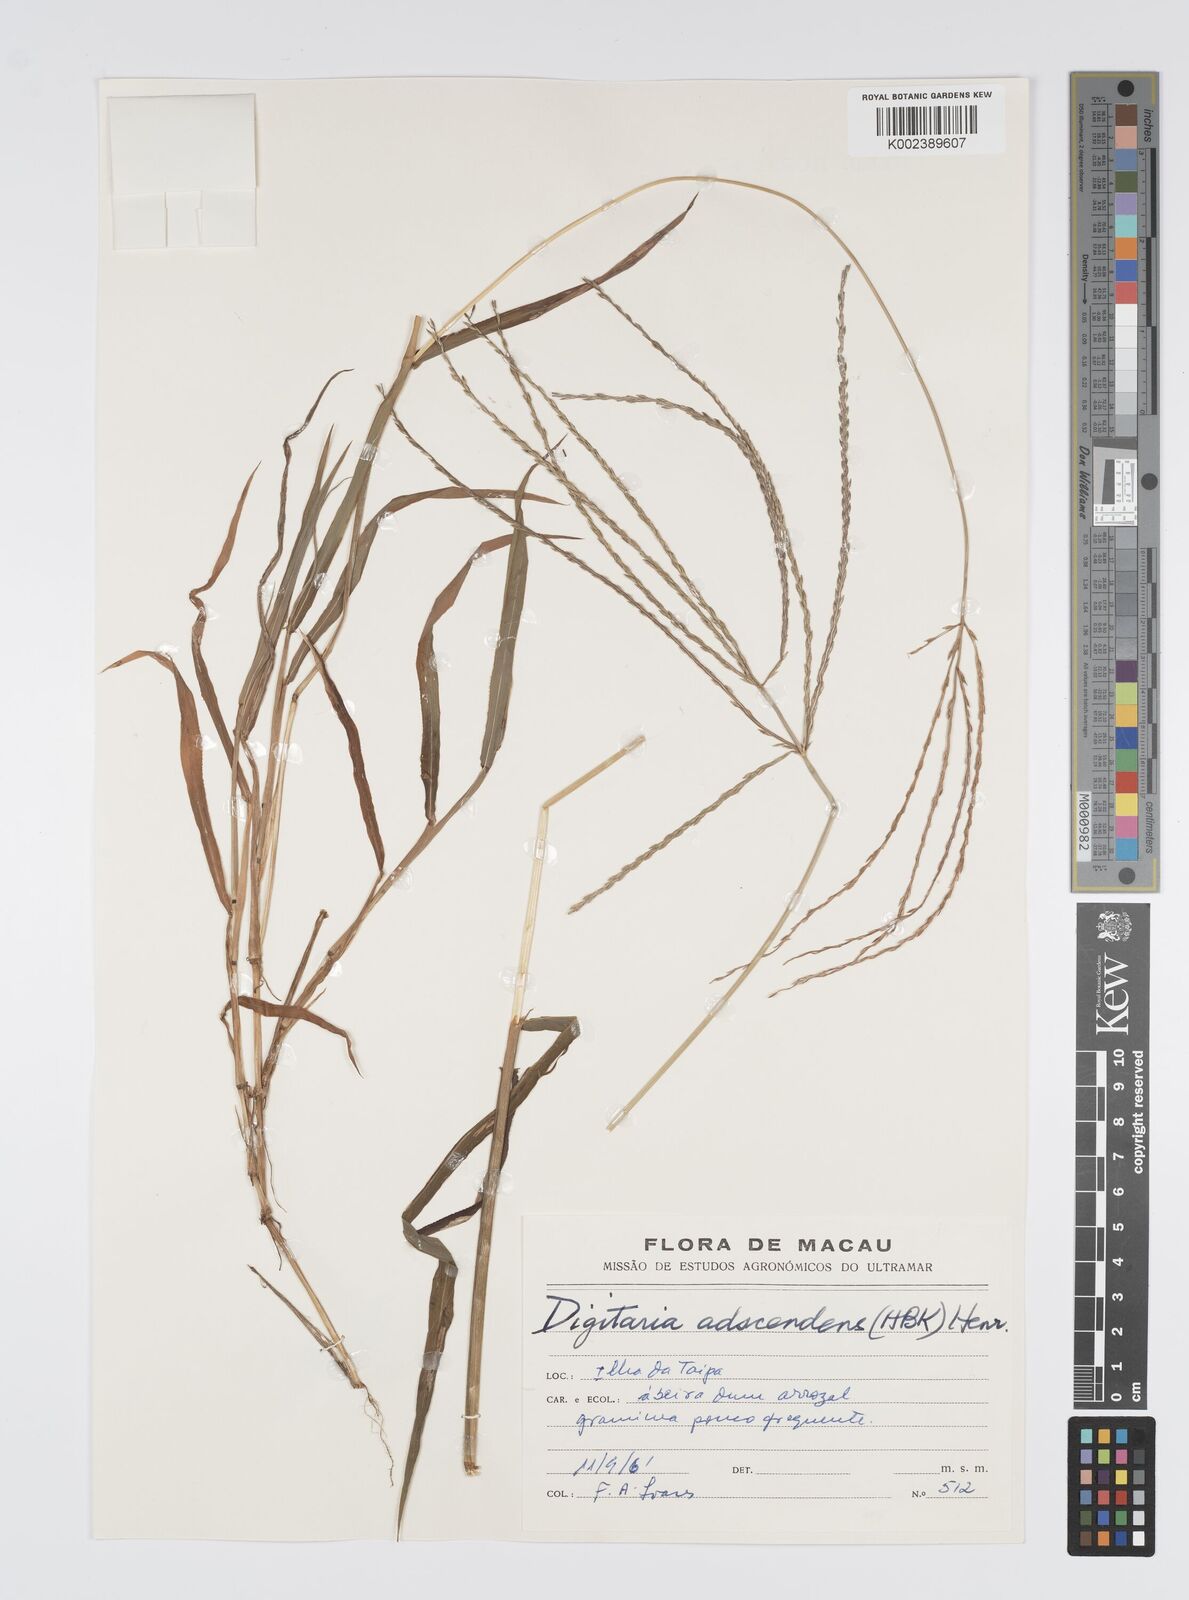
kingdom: Plantae
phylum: Tracheophyta
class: Liliopsida
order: Poales
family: Poaceae
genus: Digitaria
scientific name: Digitaria ciliaris
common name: Tropical finger-grass
